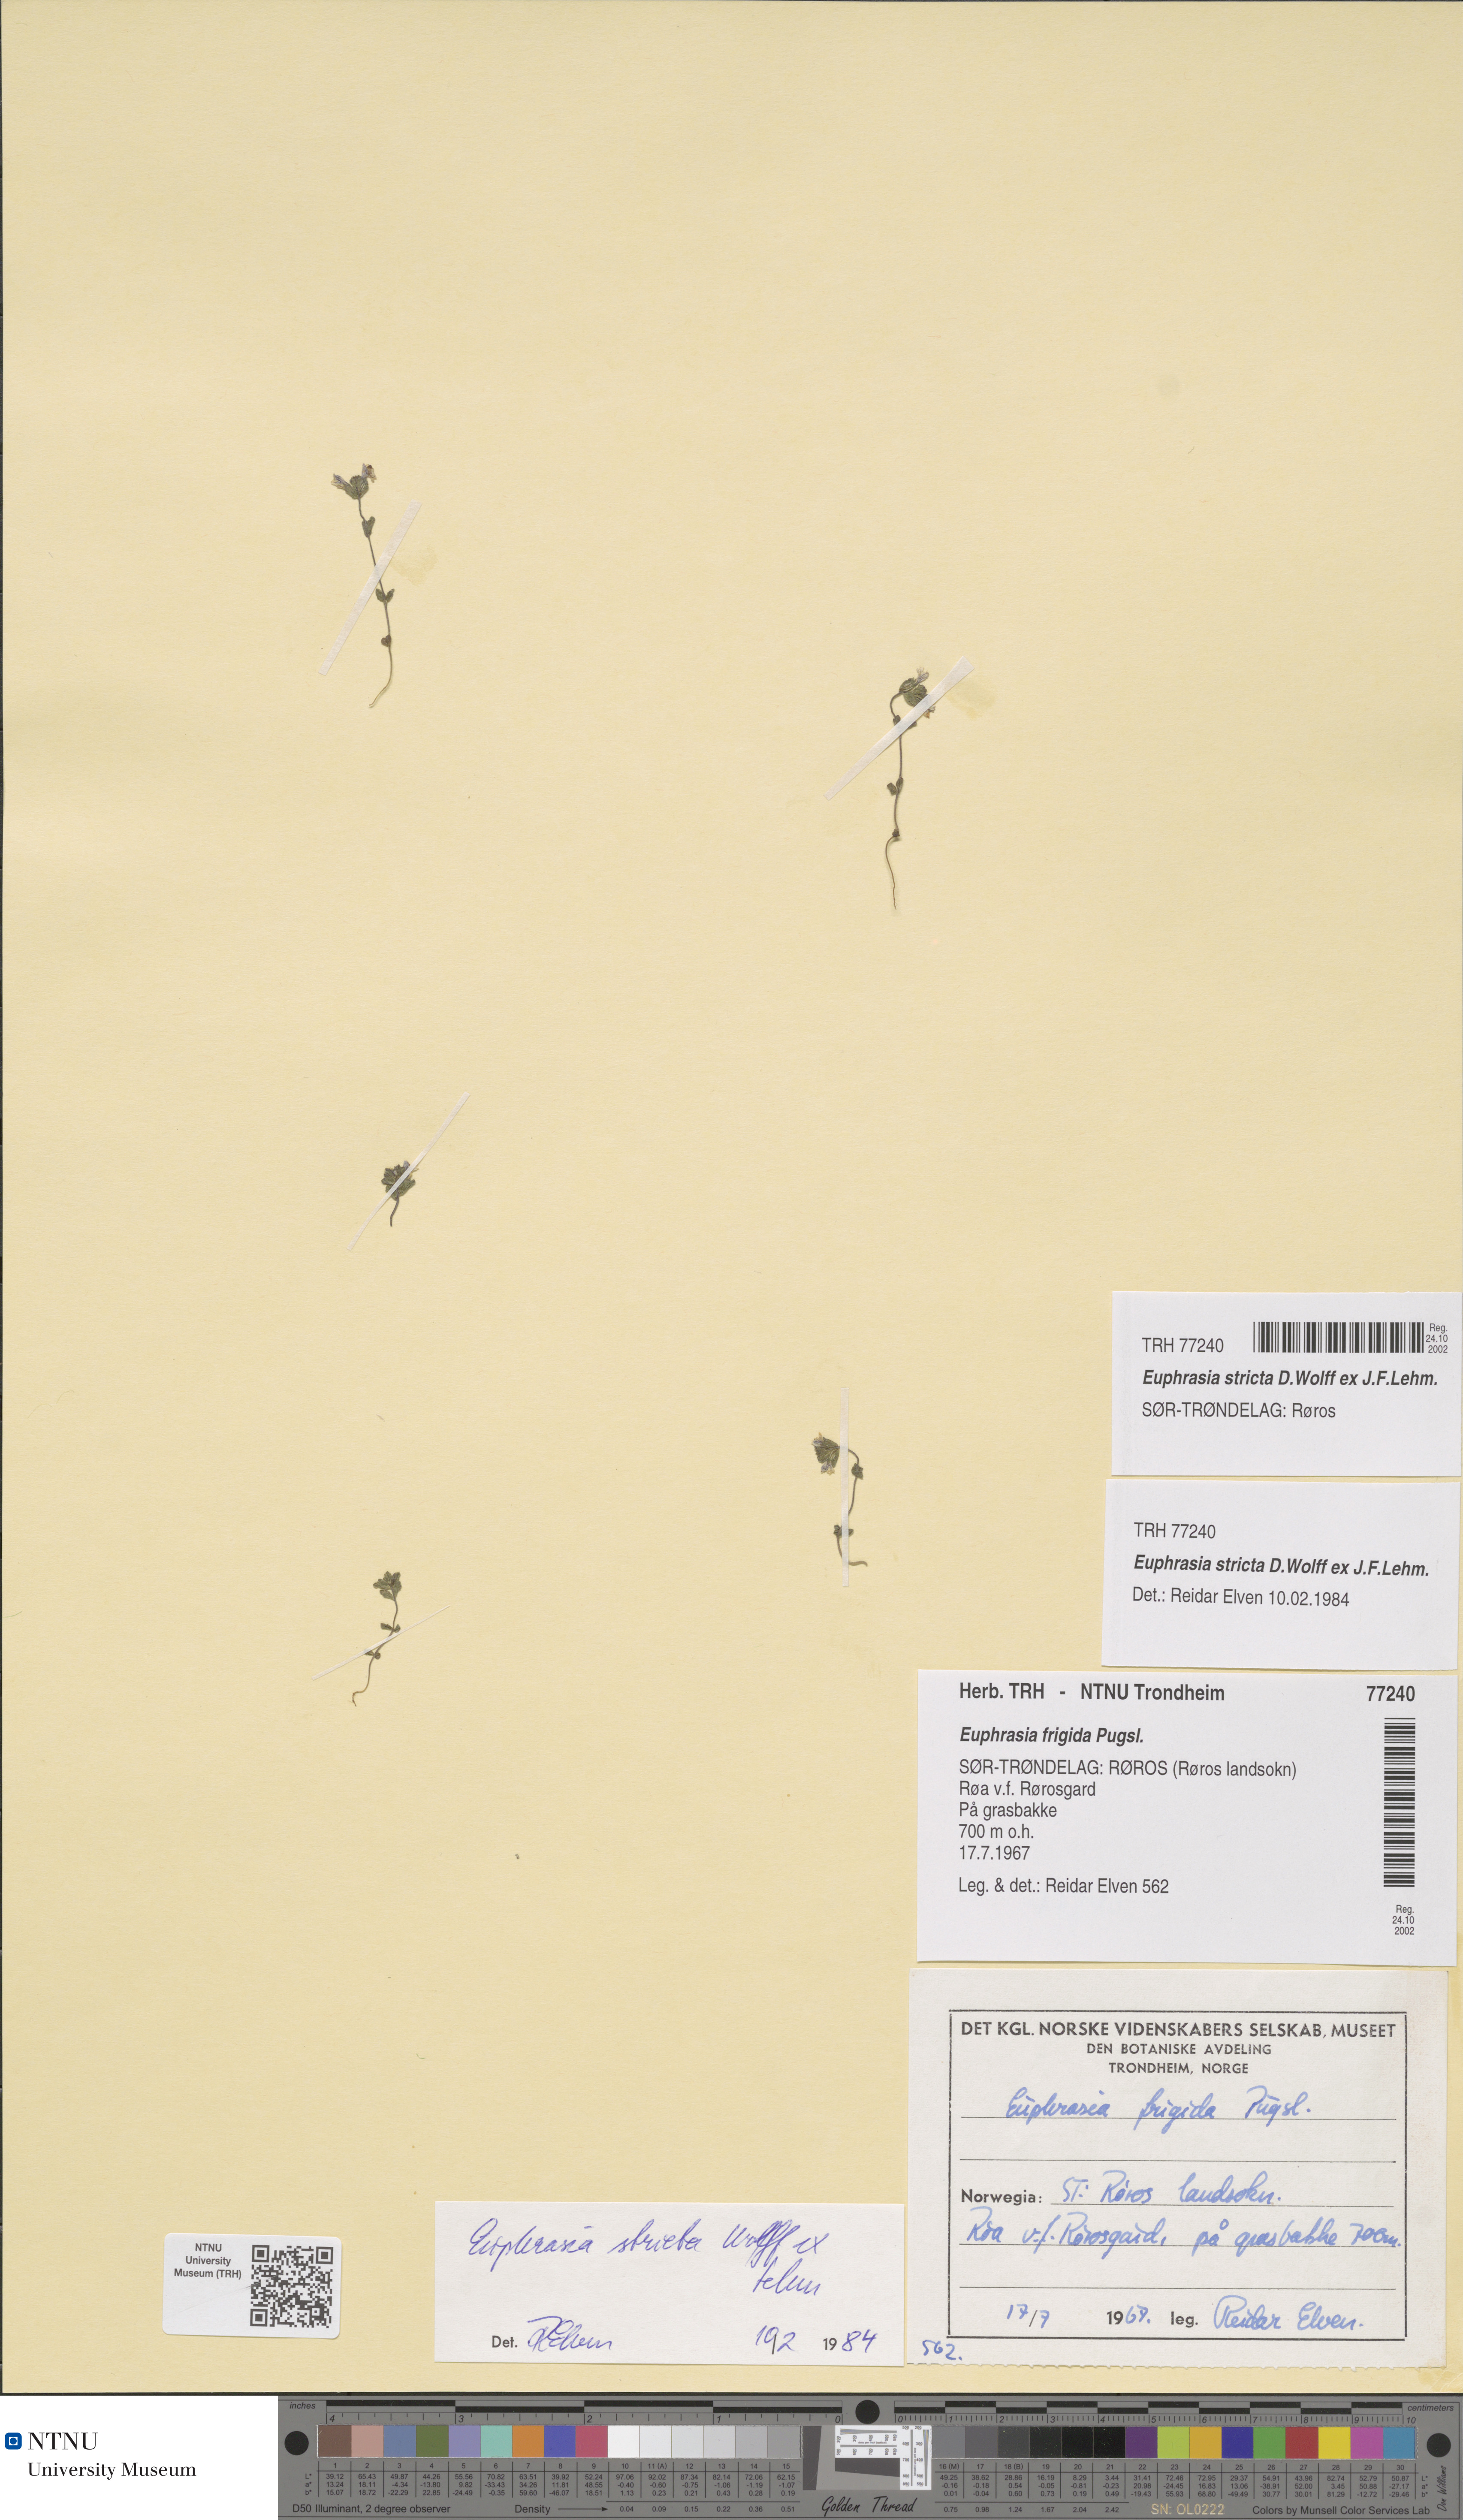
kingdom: Plantae
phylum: Tracheophyta
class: Magnoliopsida
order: Lamiales
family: Orobanchaceae
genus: Euphrasia
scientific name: Euphrasia stricta
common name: Drug eyebright
